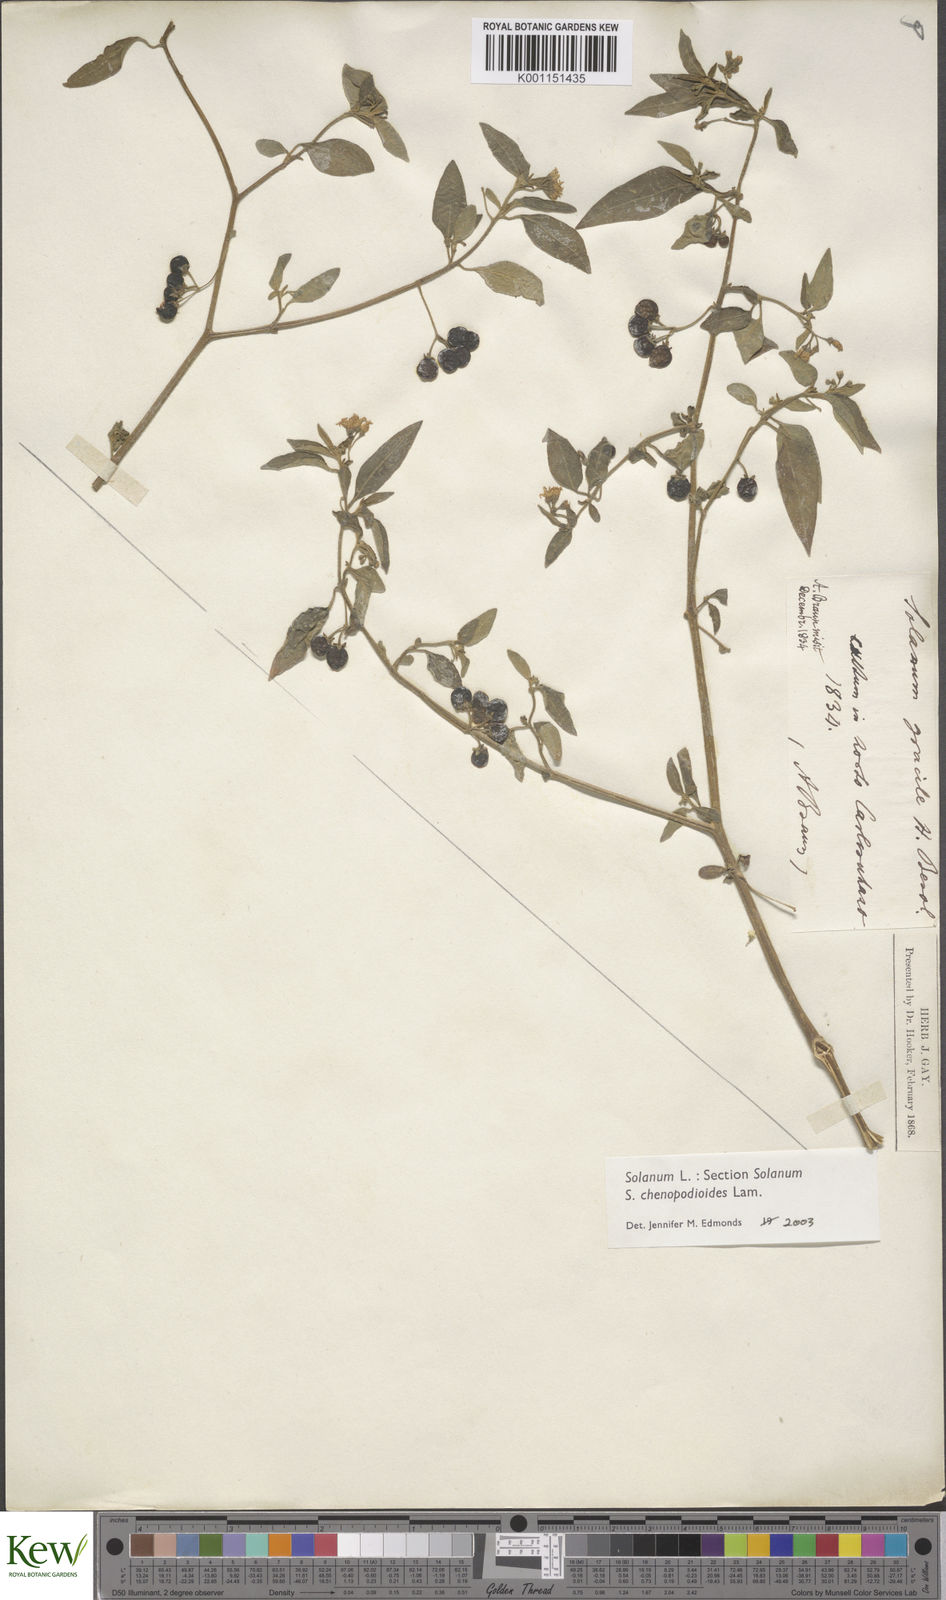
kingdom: Plantae
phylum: Tracheophyta
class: Magnoliopsida
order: Solanales
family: Solanaceae
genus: Solanum
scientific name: Solanum chenopodioides
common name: Tall nightshade
